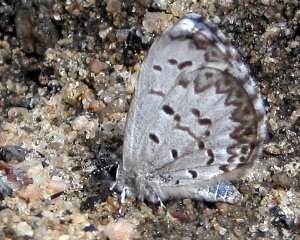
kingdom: Animalia
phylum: Arthropoda
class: Insecta
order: Lepidoptera
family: Lycaenidae
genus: Celastrina
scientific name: Celastrina lucia
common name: Northern Spring Azure
